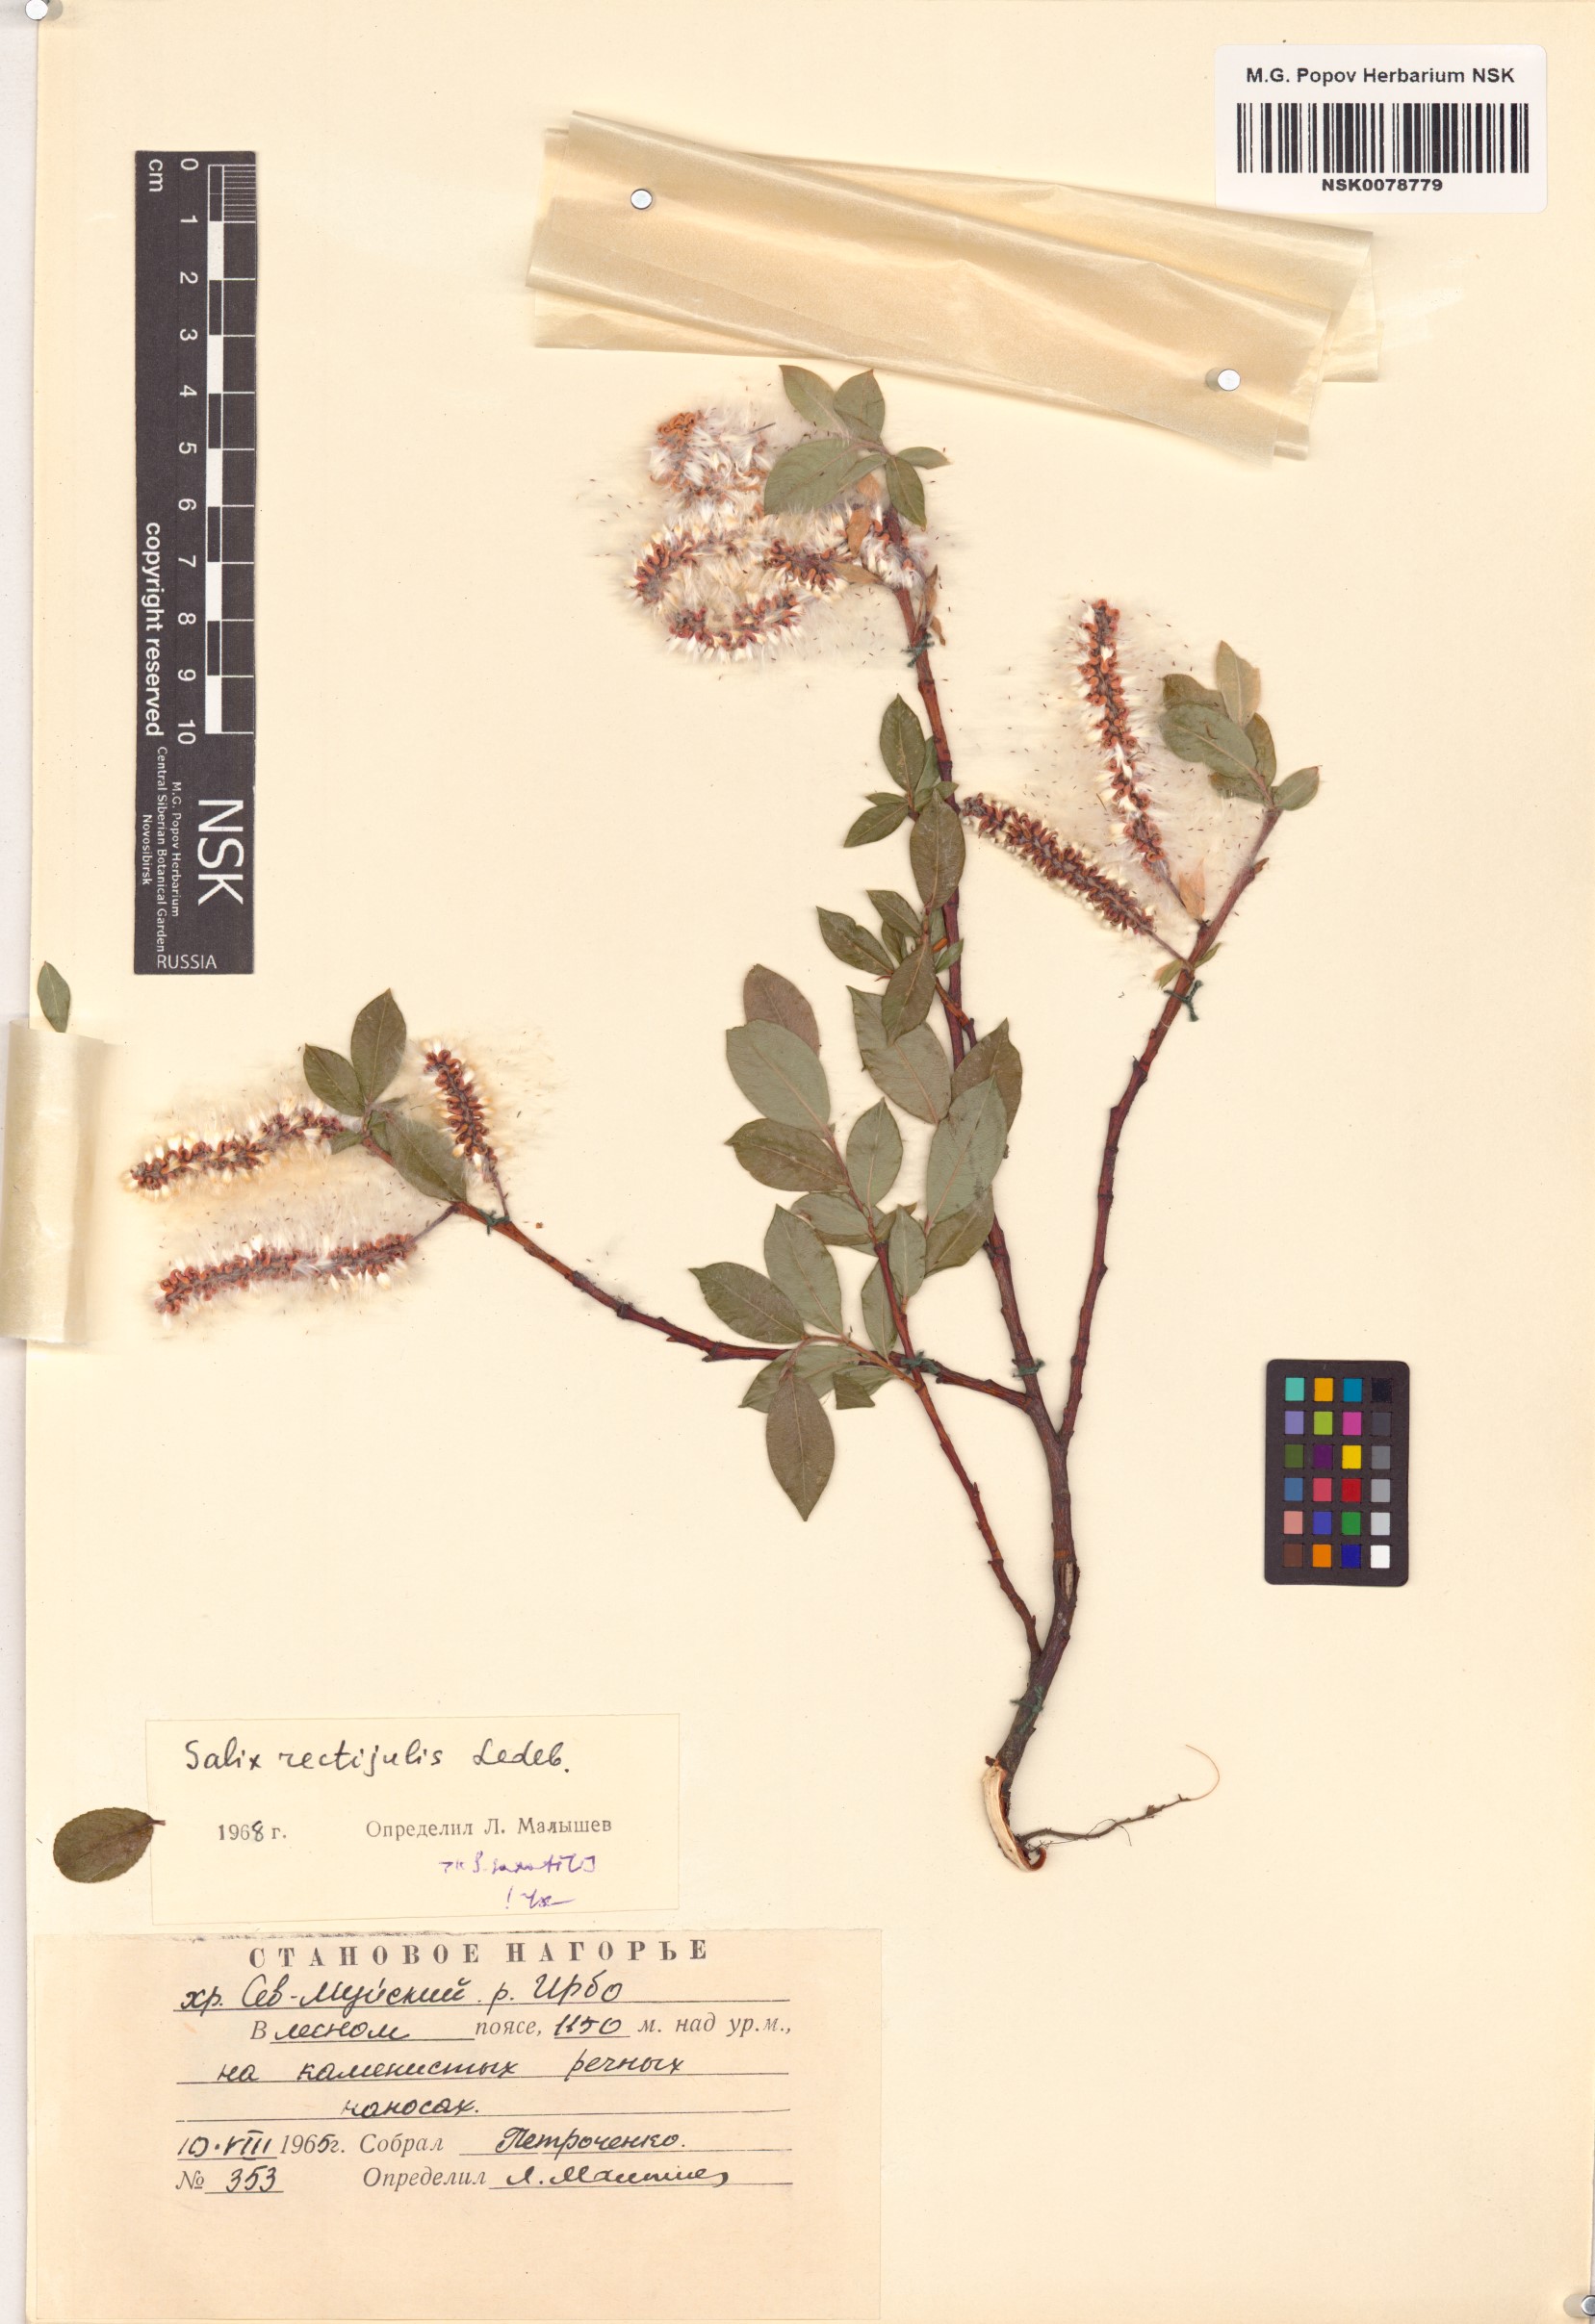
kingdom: Plantae
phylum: Tracheophyta
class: Magnoliopsida
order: Malpighiales
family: Salicaceae
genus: Salix
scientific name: Salix rectijulis
